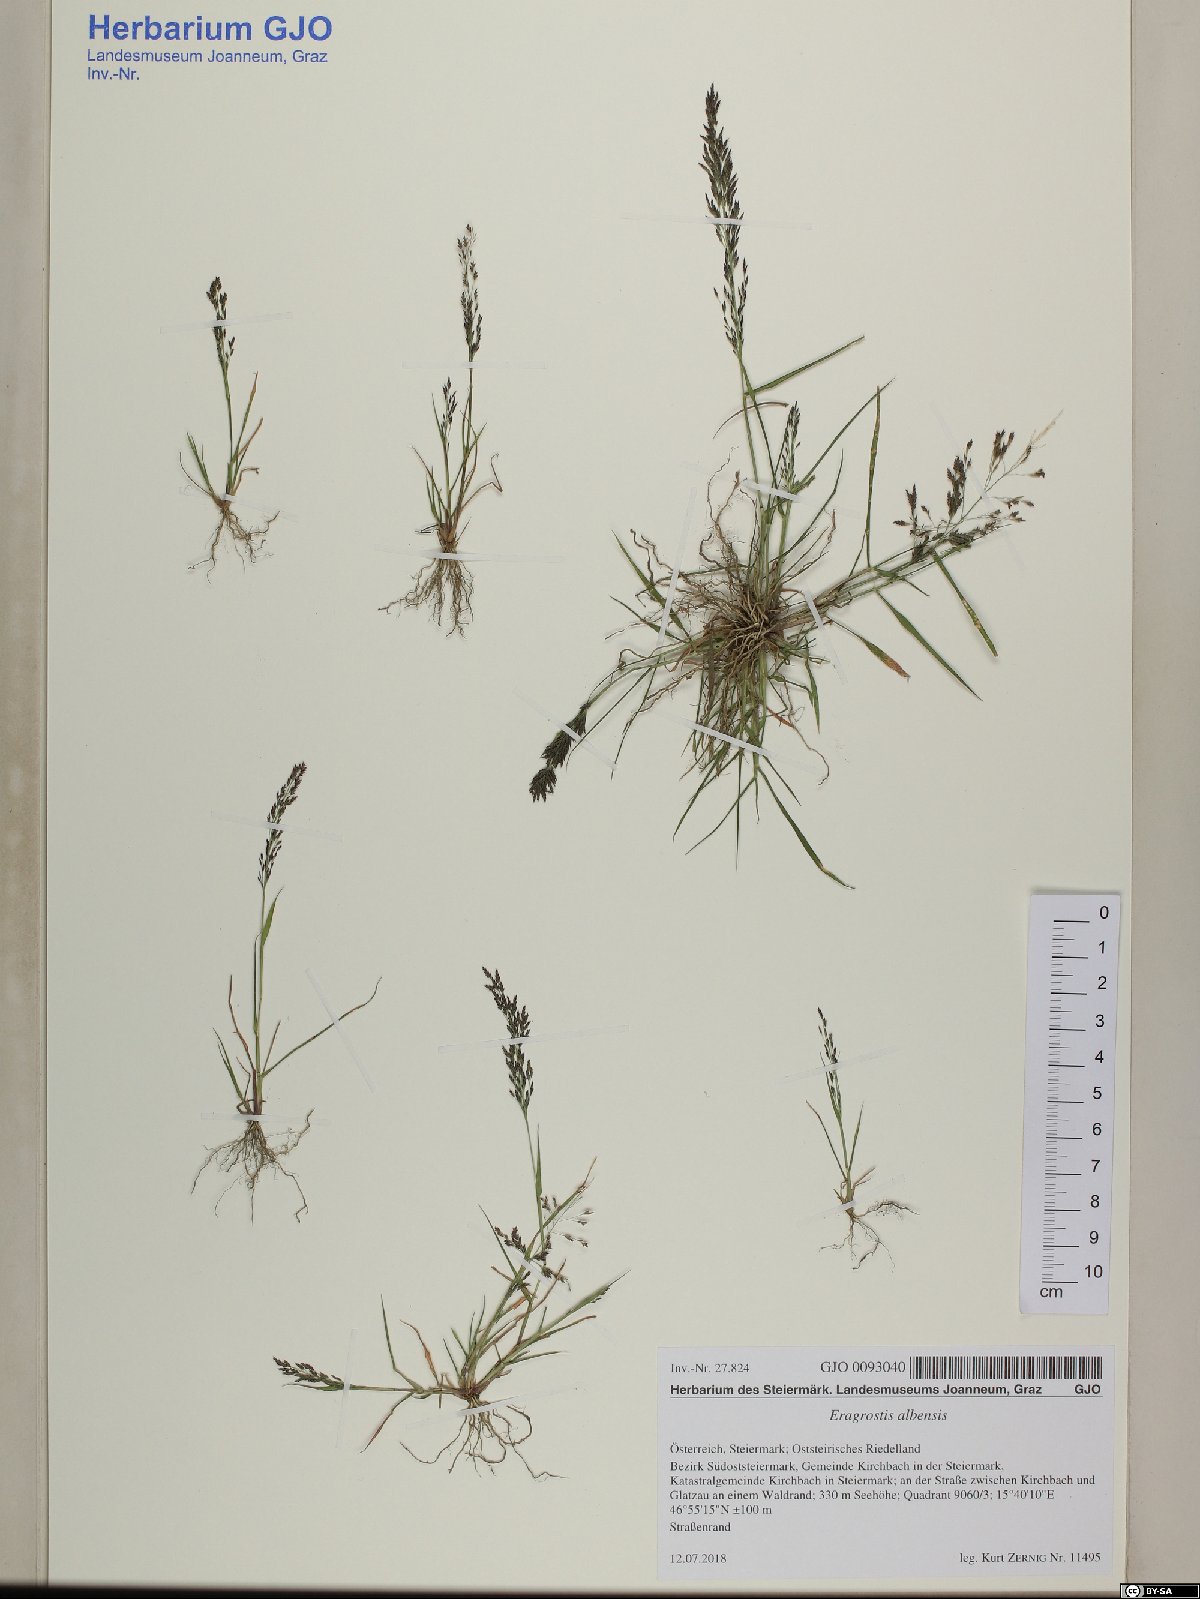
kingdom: Plantae
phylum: Tracheophyta
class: Liliopsida
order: Poales
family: Poaceae
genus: Eragrostis
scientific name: Eragrostis pilosa
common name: Indian lovegrass
